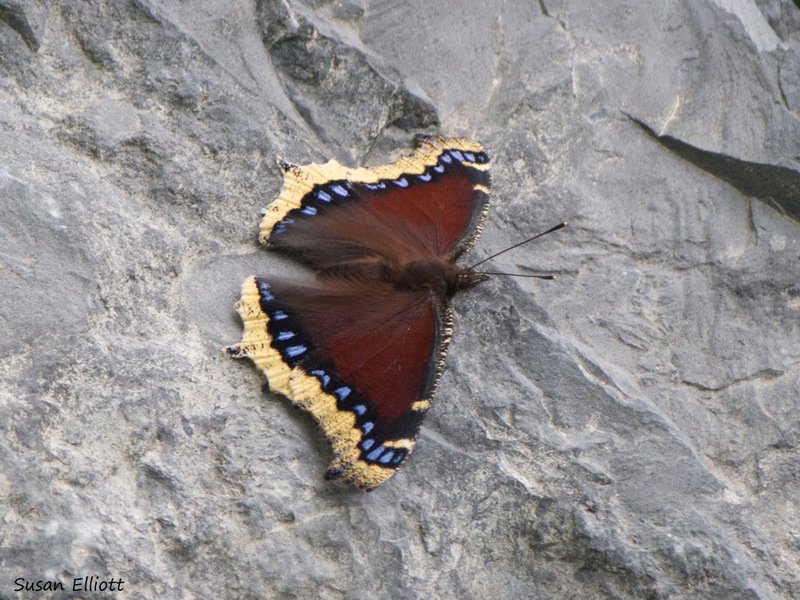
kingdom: Animalia
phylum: Arthropoda
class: Insecta
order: Lepidoptera
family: Nymphalidae
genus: Nymphalis
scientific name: Nymphalis antiopa
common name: Mourning Cloak
